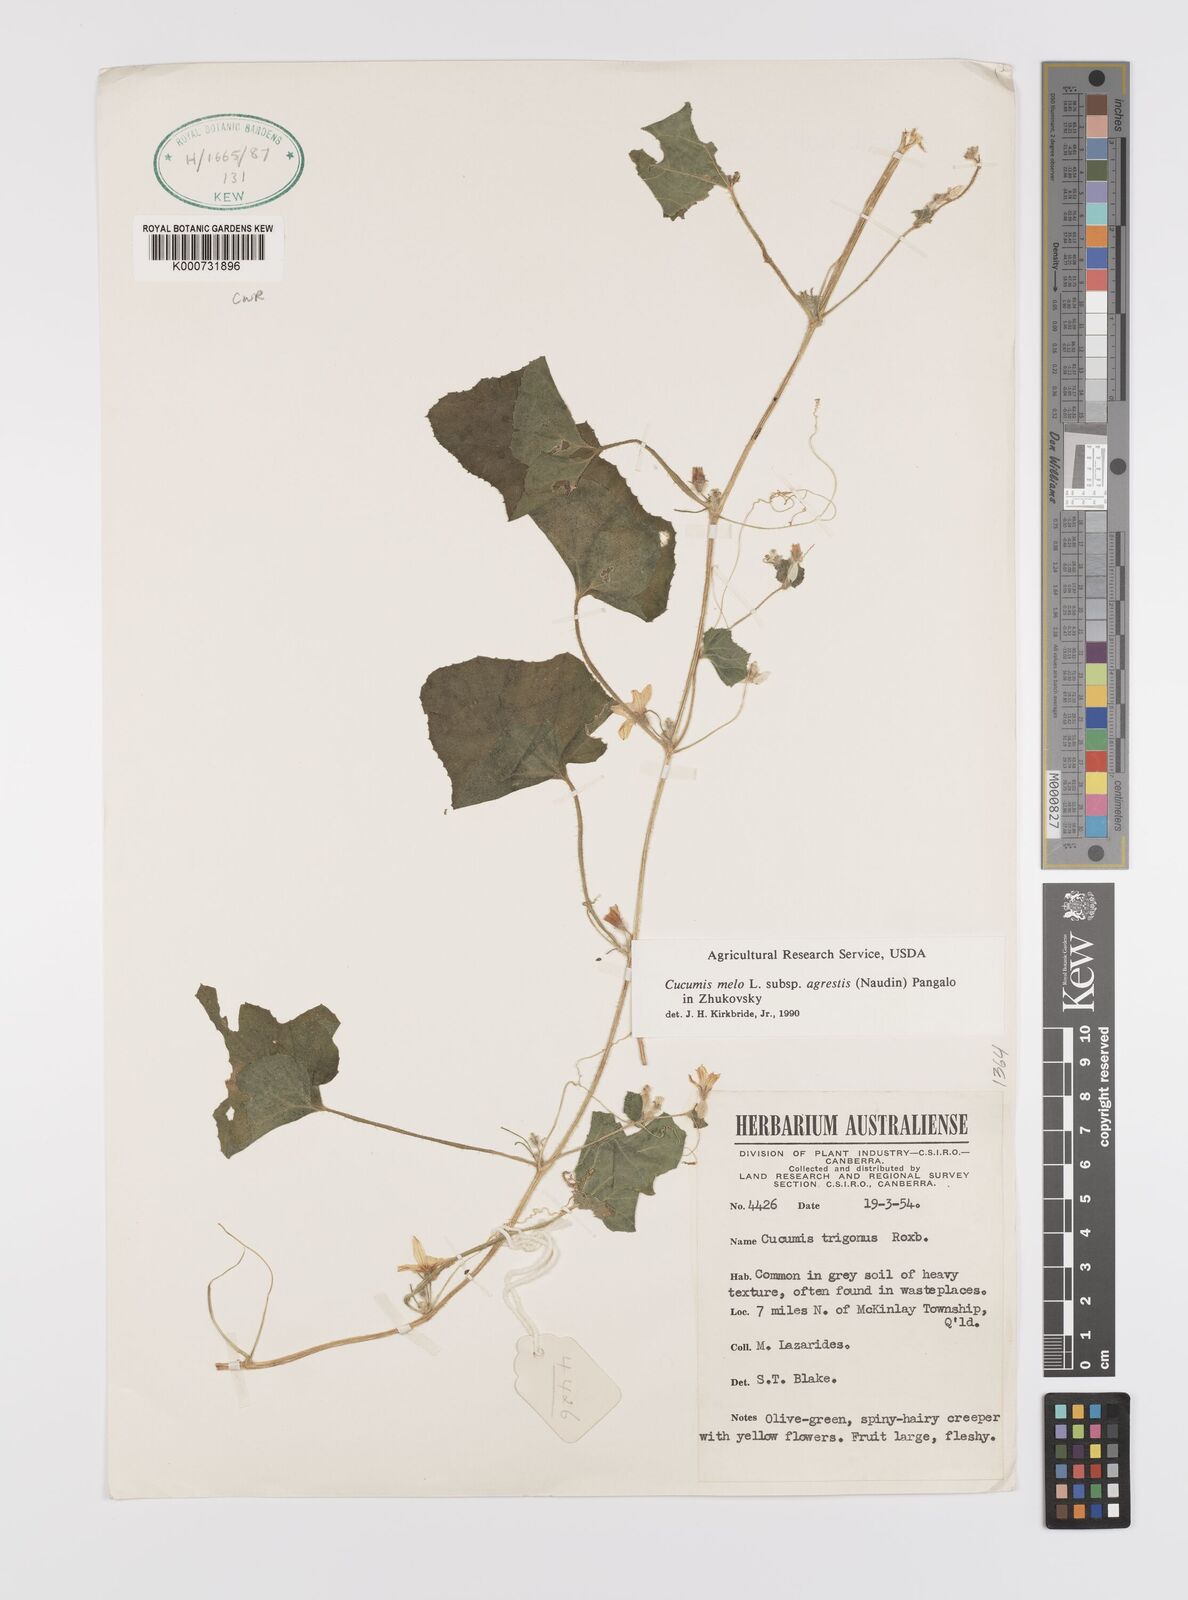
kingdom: Plantae
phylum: Tracheophyta
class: Magnoliopsida
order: Cucurbitales
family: Cucurbitaceae
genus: Cucumis
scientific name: Cucumis melo
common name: Melon
